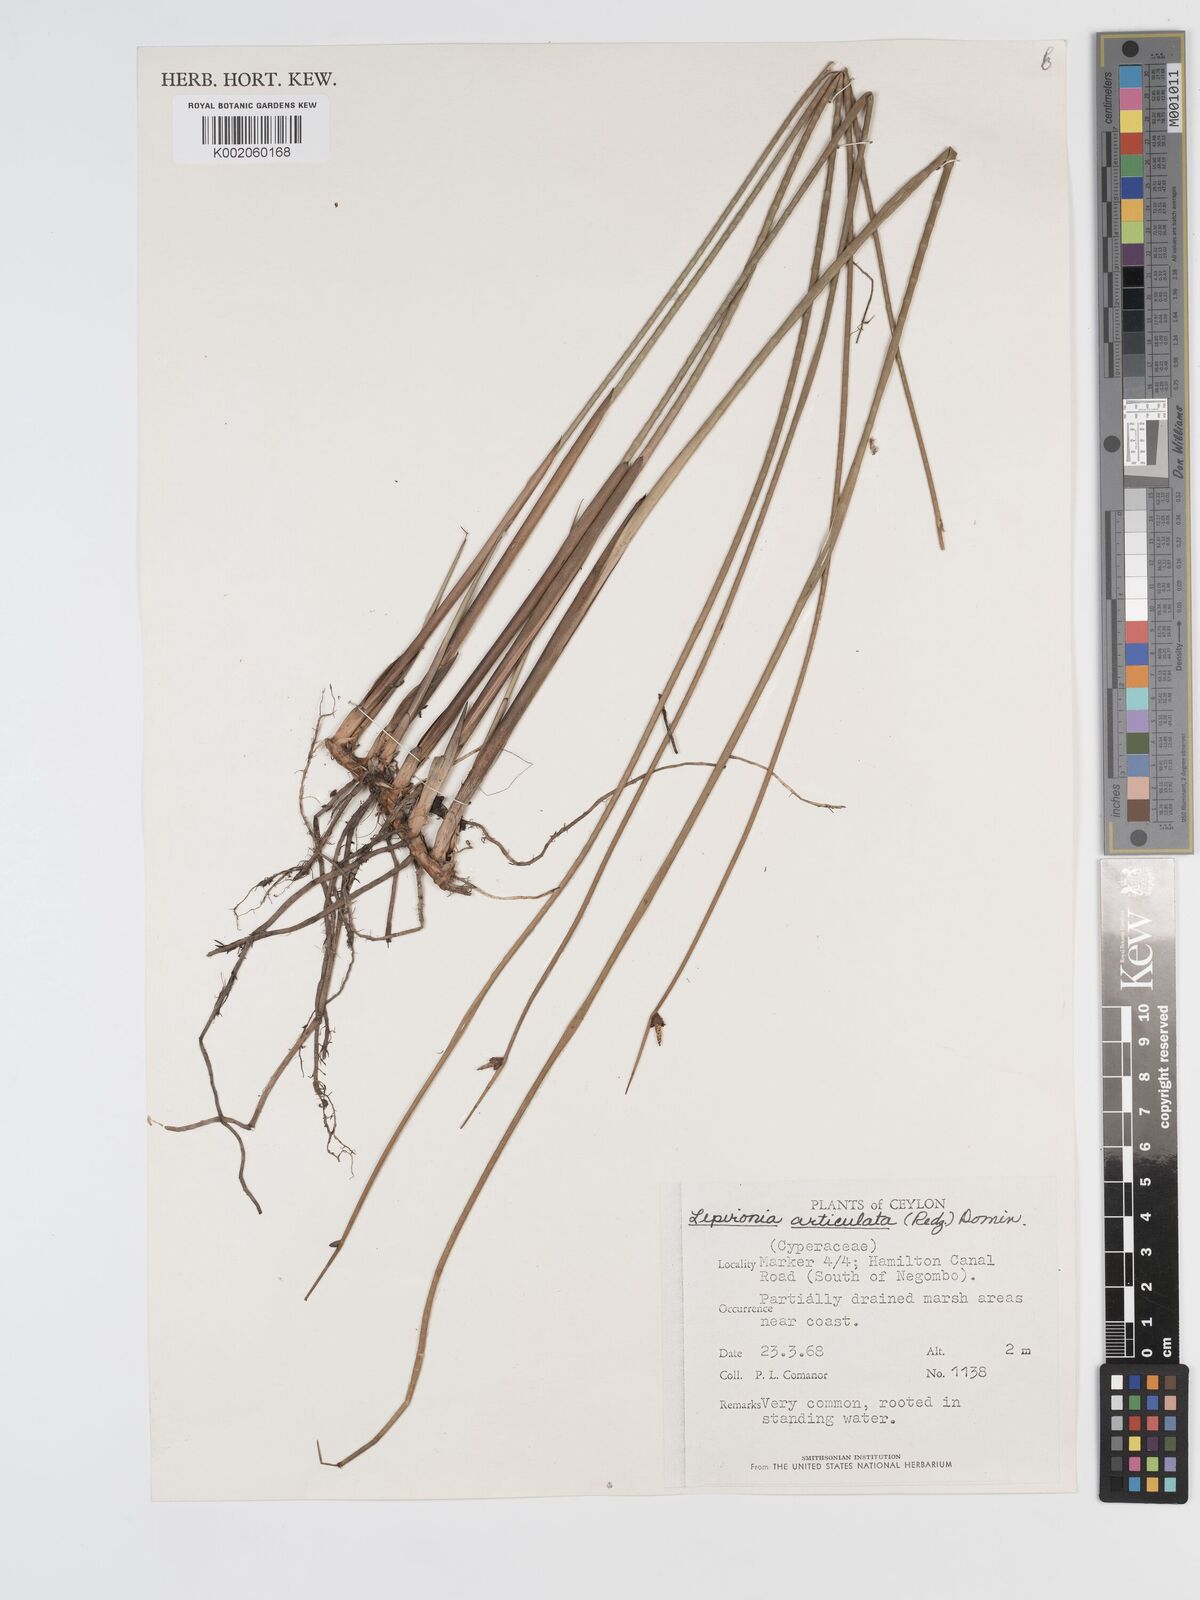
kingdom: Plantae
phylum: Tracheophyta
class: Liliopsida
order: Poales
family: Cyperaceae
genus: Lepironia
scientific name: Lepironia articulata
